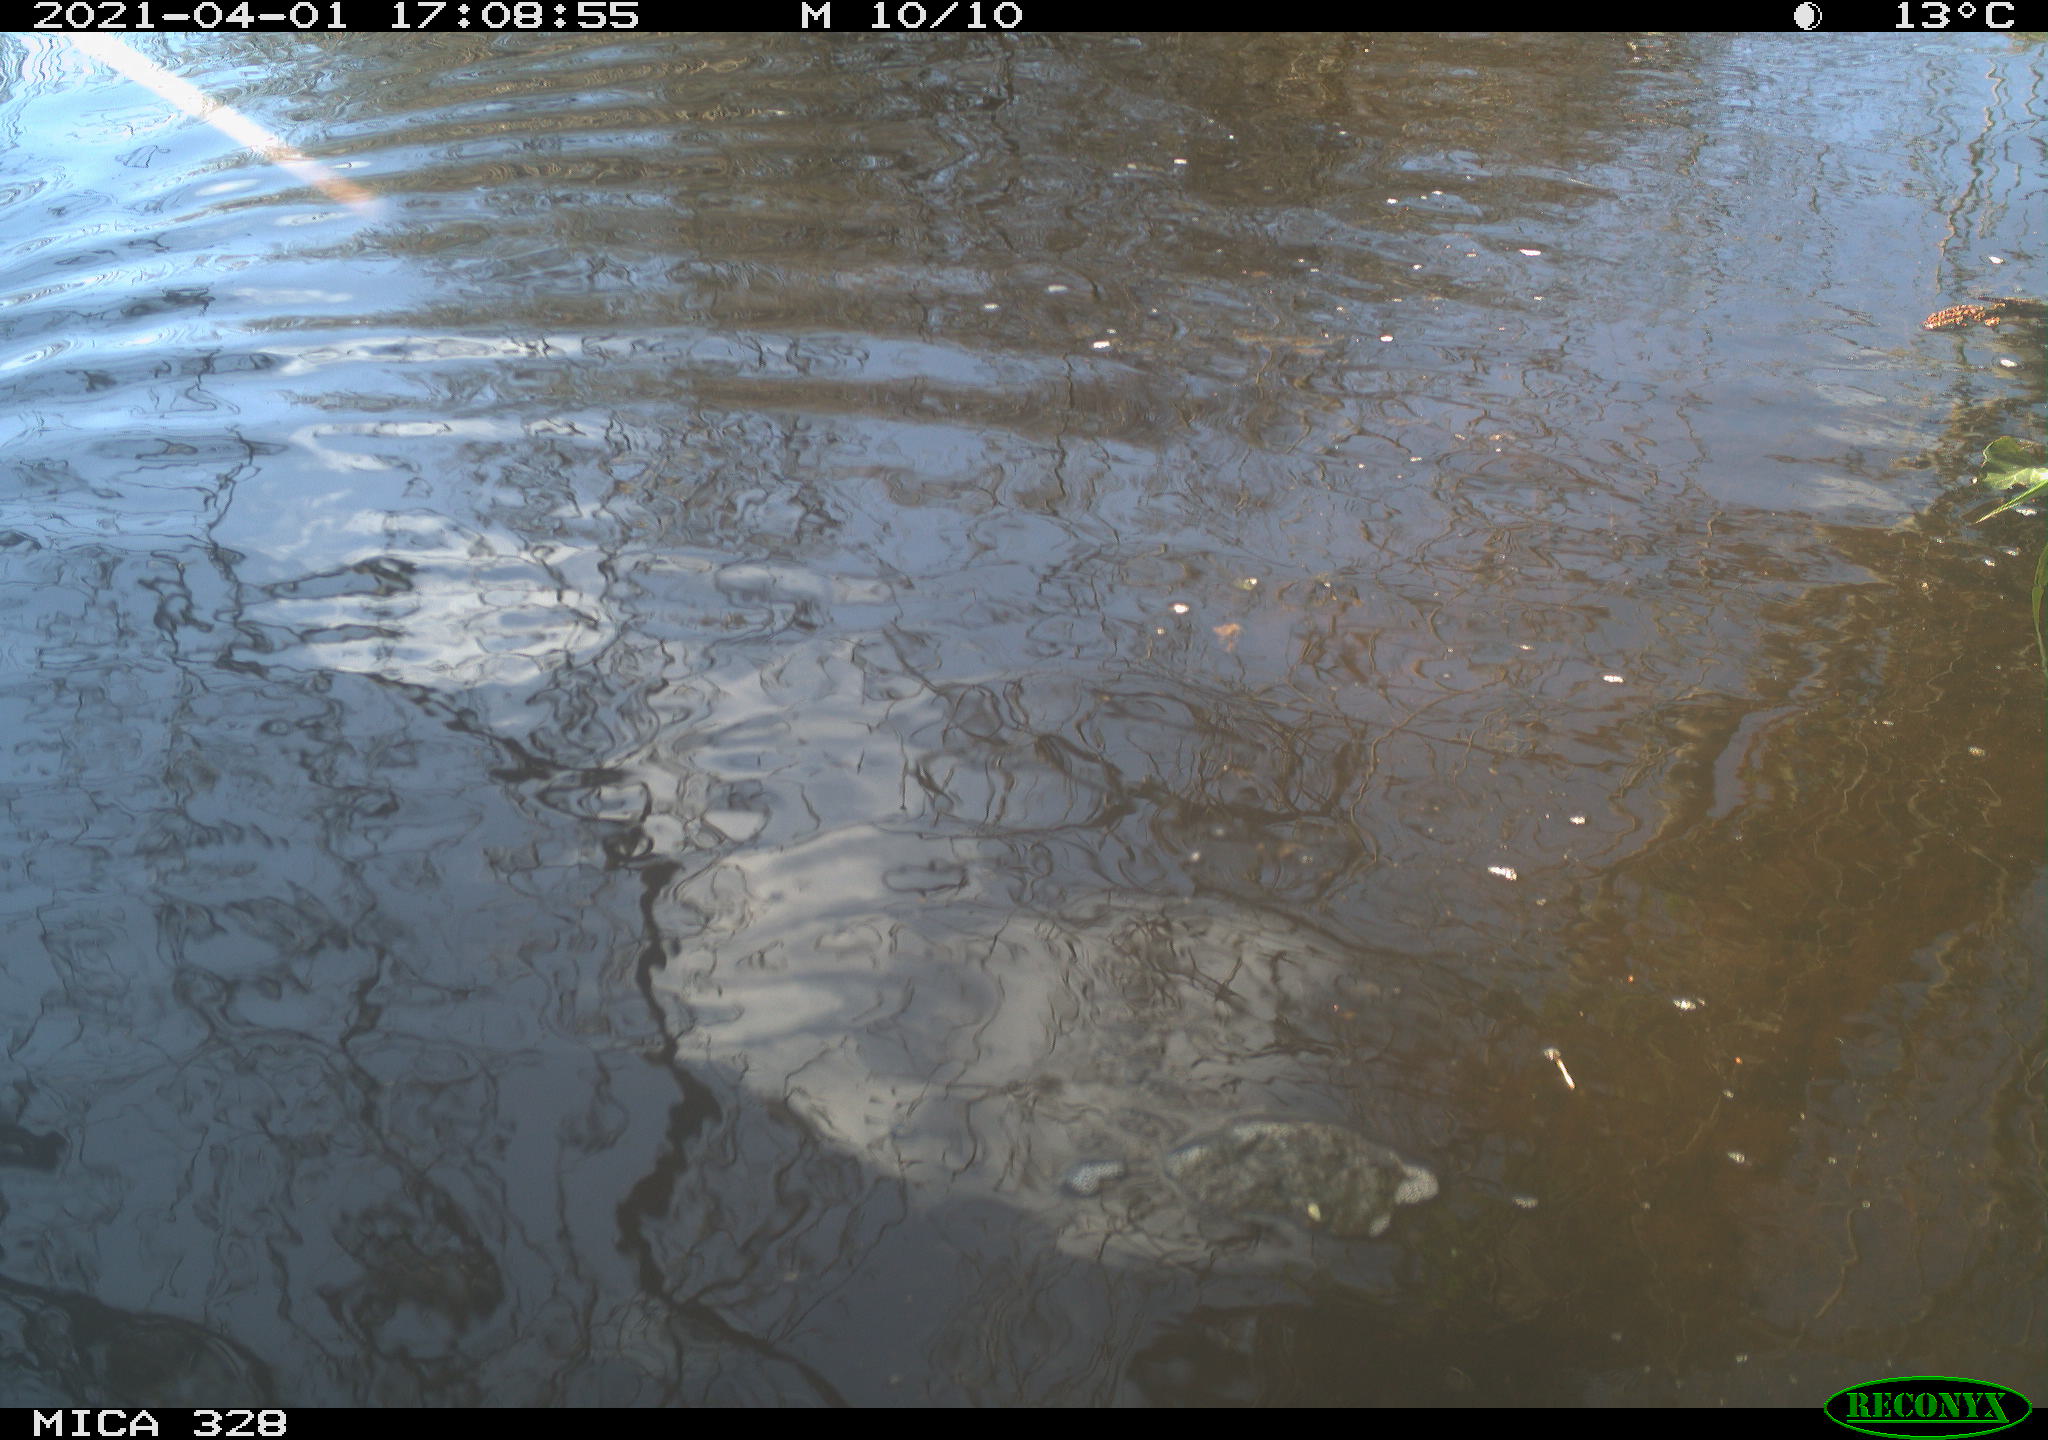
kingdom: Animalia
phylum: Chordata
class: Mammalia
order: Rodentia
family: Cricetidae
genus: Ondatra
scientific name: Ondatra zibethicus
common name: Muskrat
